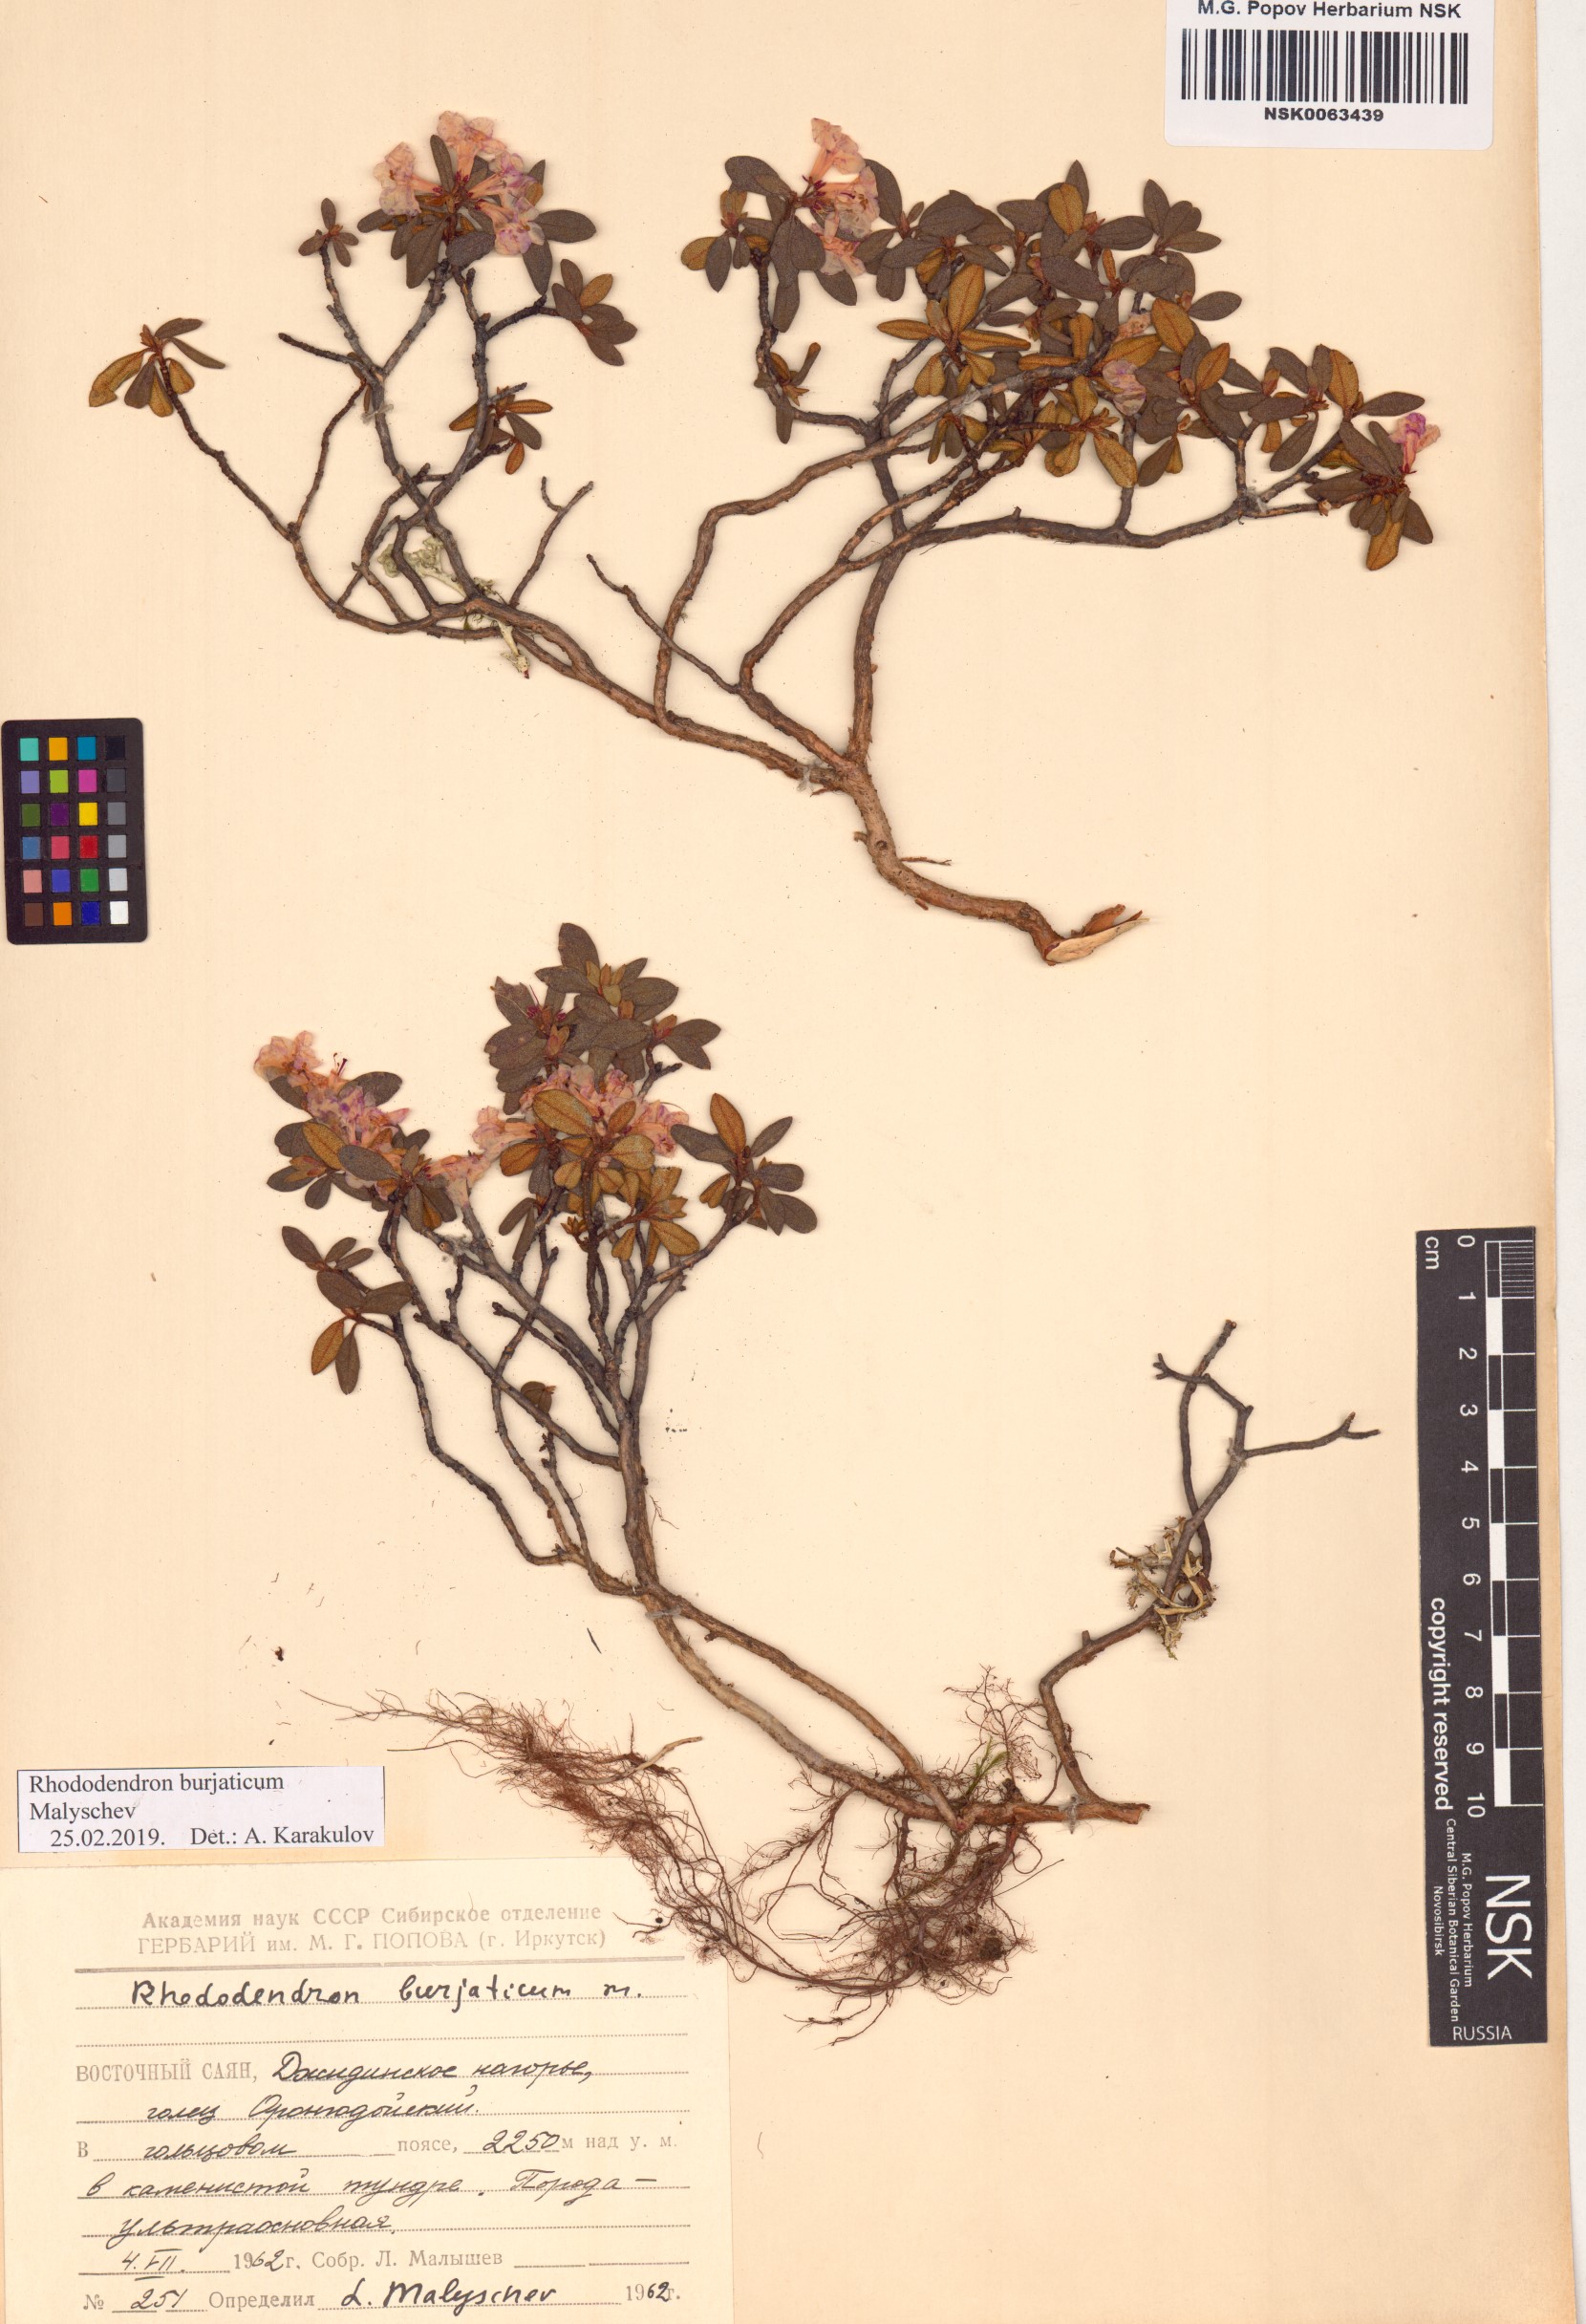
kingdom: Plantae
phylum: Tracheophyta
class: Magnoliopsida
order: Ericales
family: Ericaceae
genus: Rhododendron
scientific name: Rhododendron burjaticum
